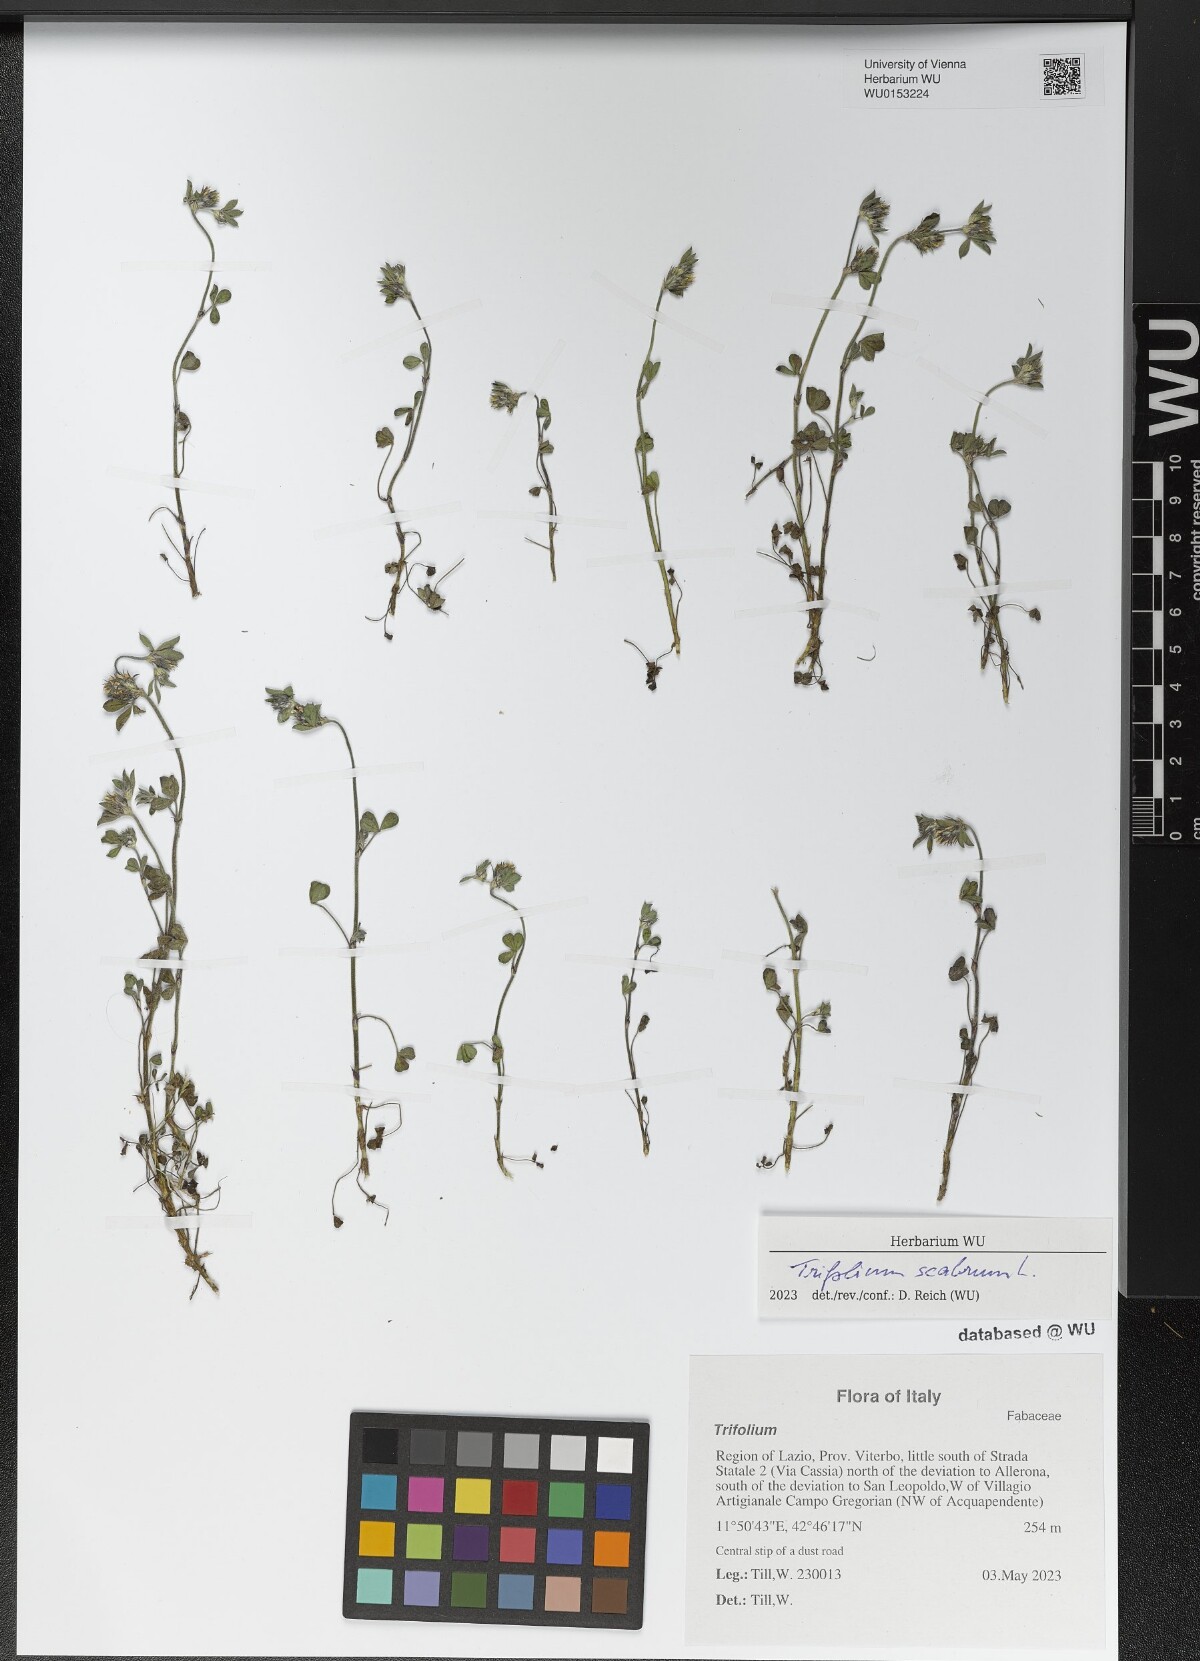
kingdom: Plantae
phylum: Tracheophyta
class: Magnoliopsida
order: Fabales
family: Fabaceae
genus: Trifolium
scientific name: Trifolium scabrum
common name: Rough clover
